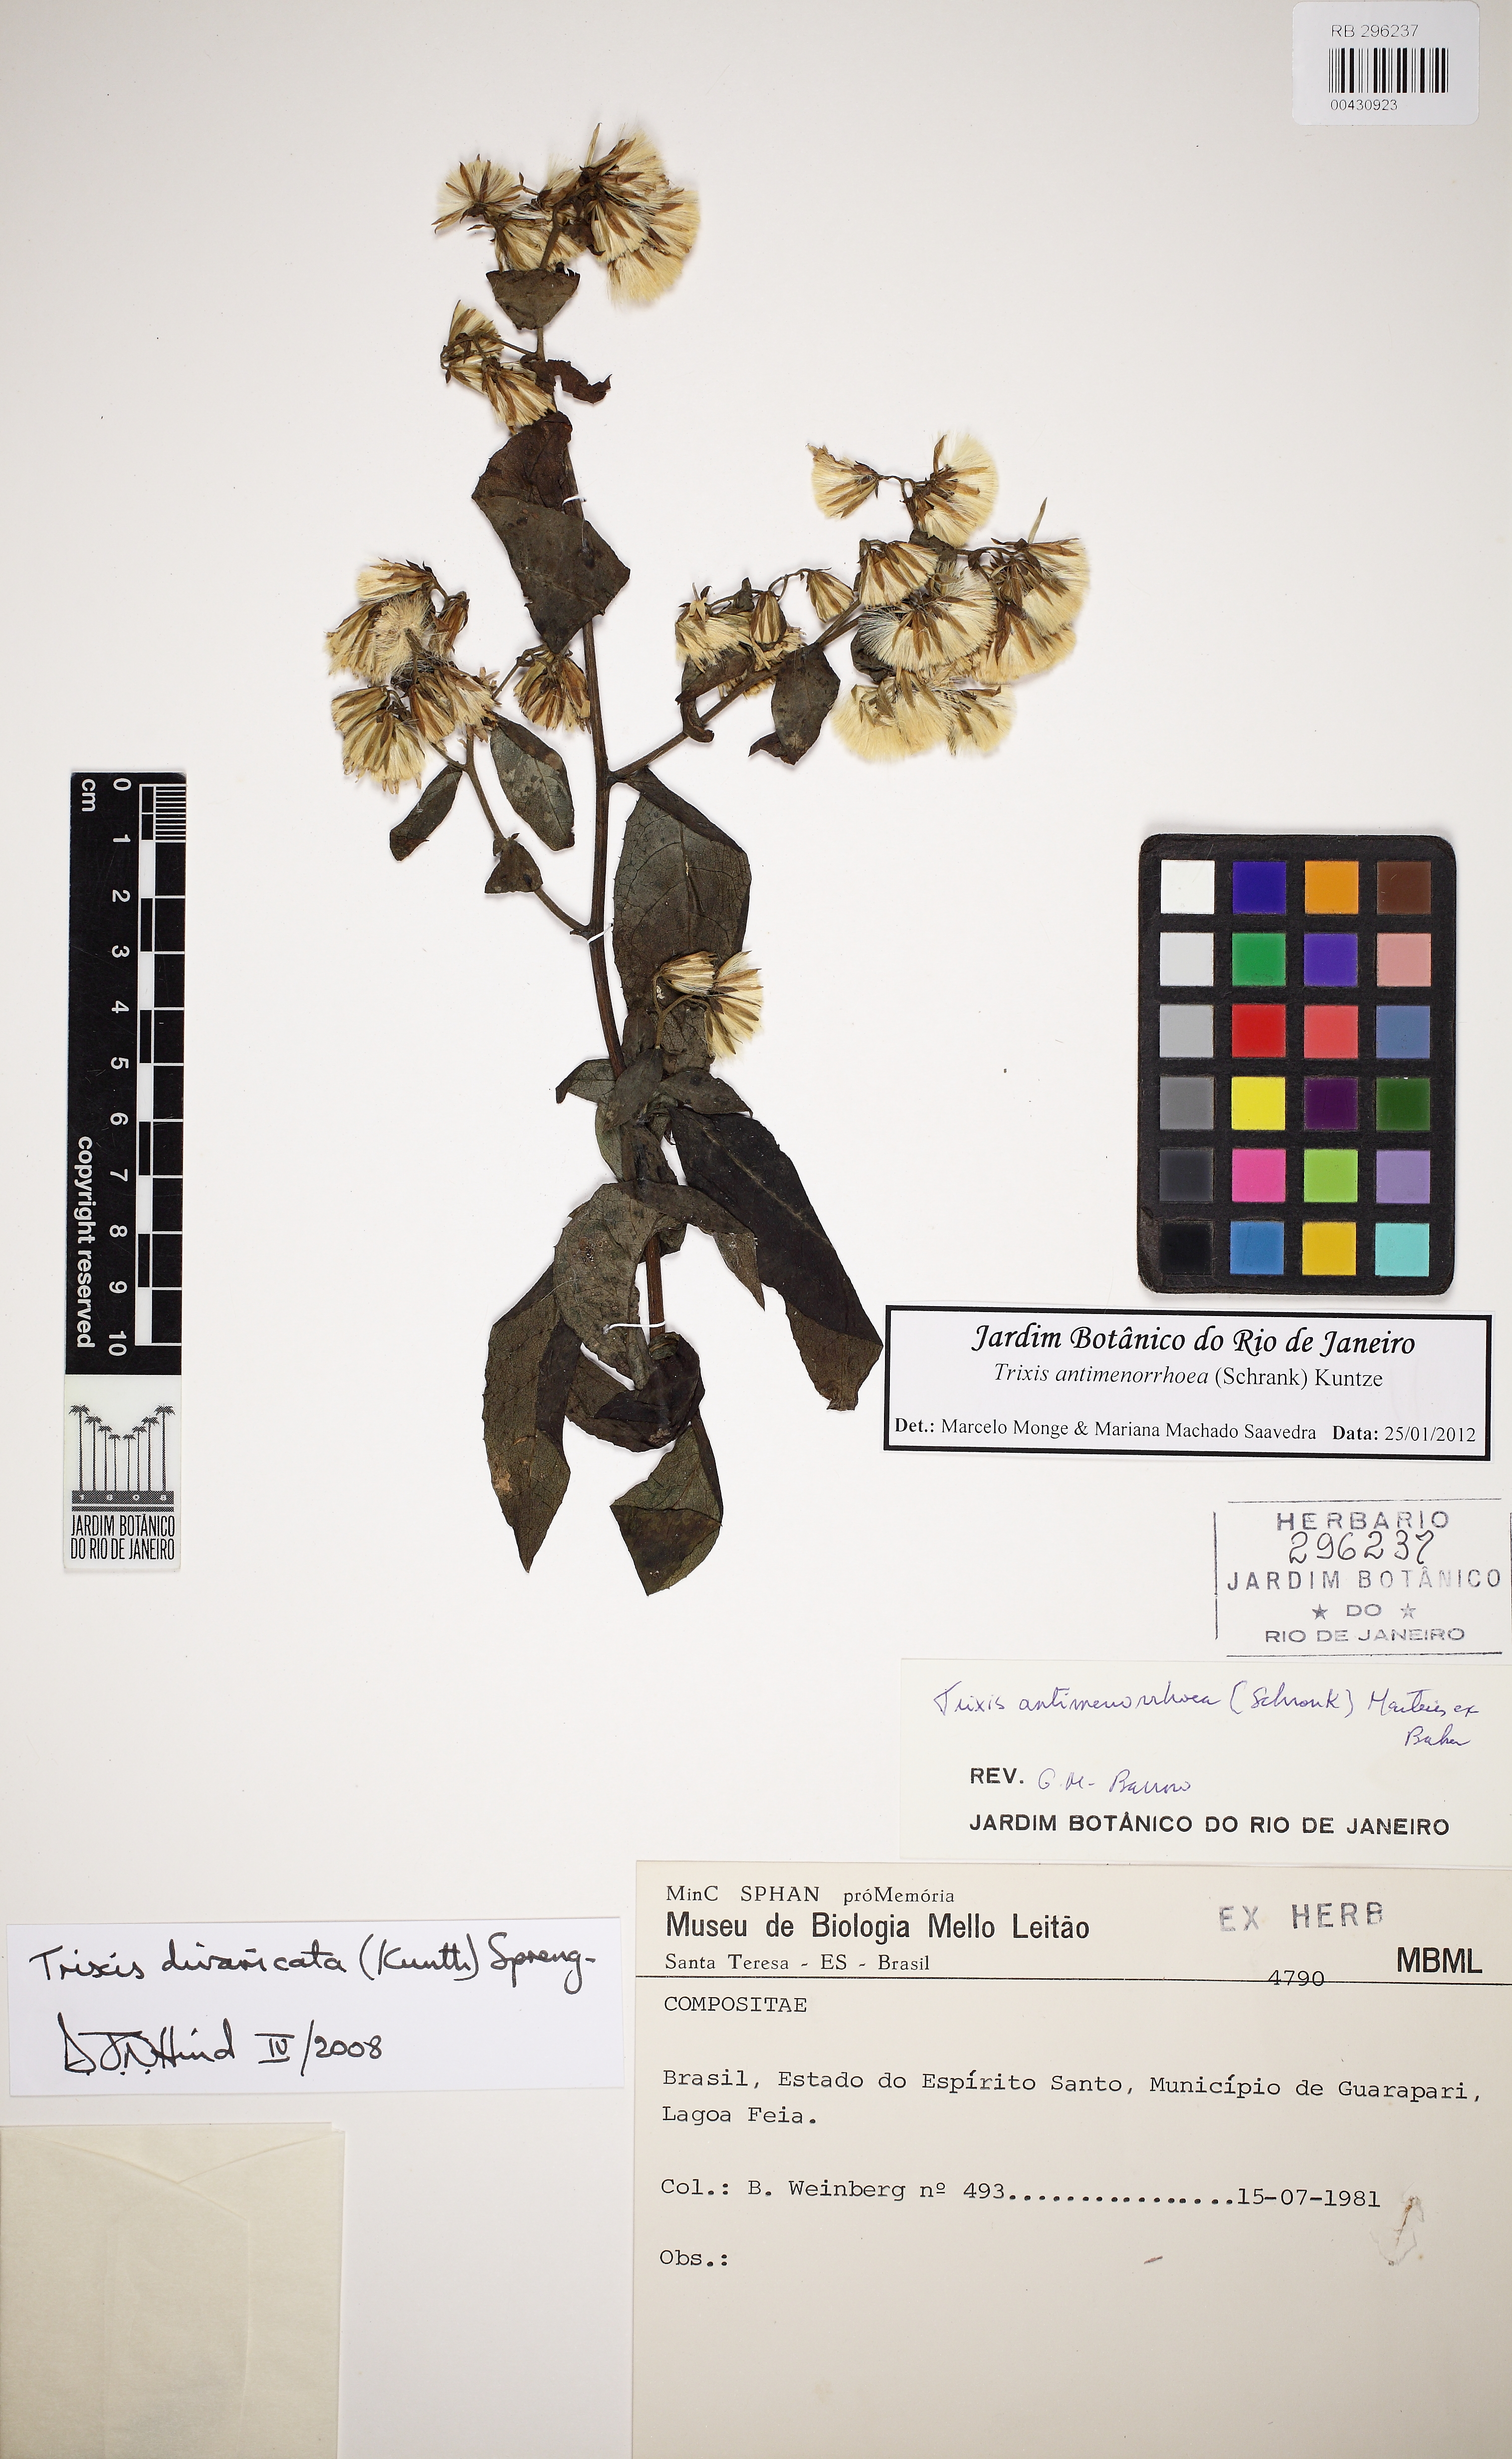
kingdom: Plantae
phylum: Tracheophyta
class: Magnoliopsida
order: Asterales
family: Asteraceae
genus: Trixis
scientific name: Trixis divaricata
